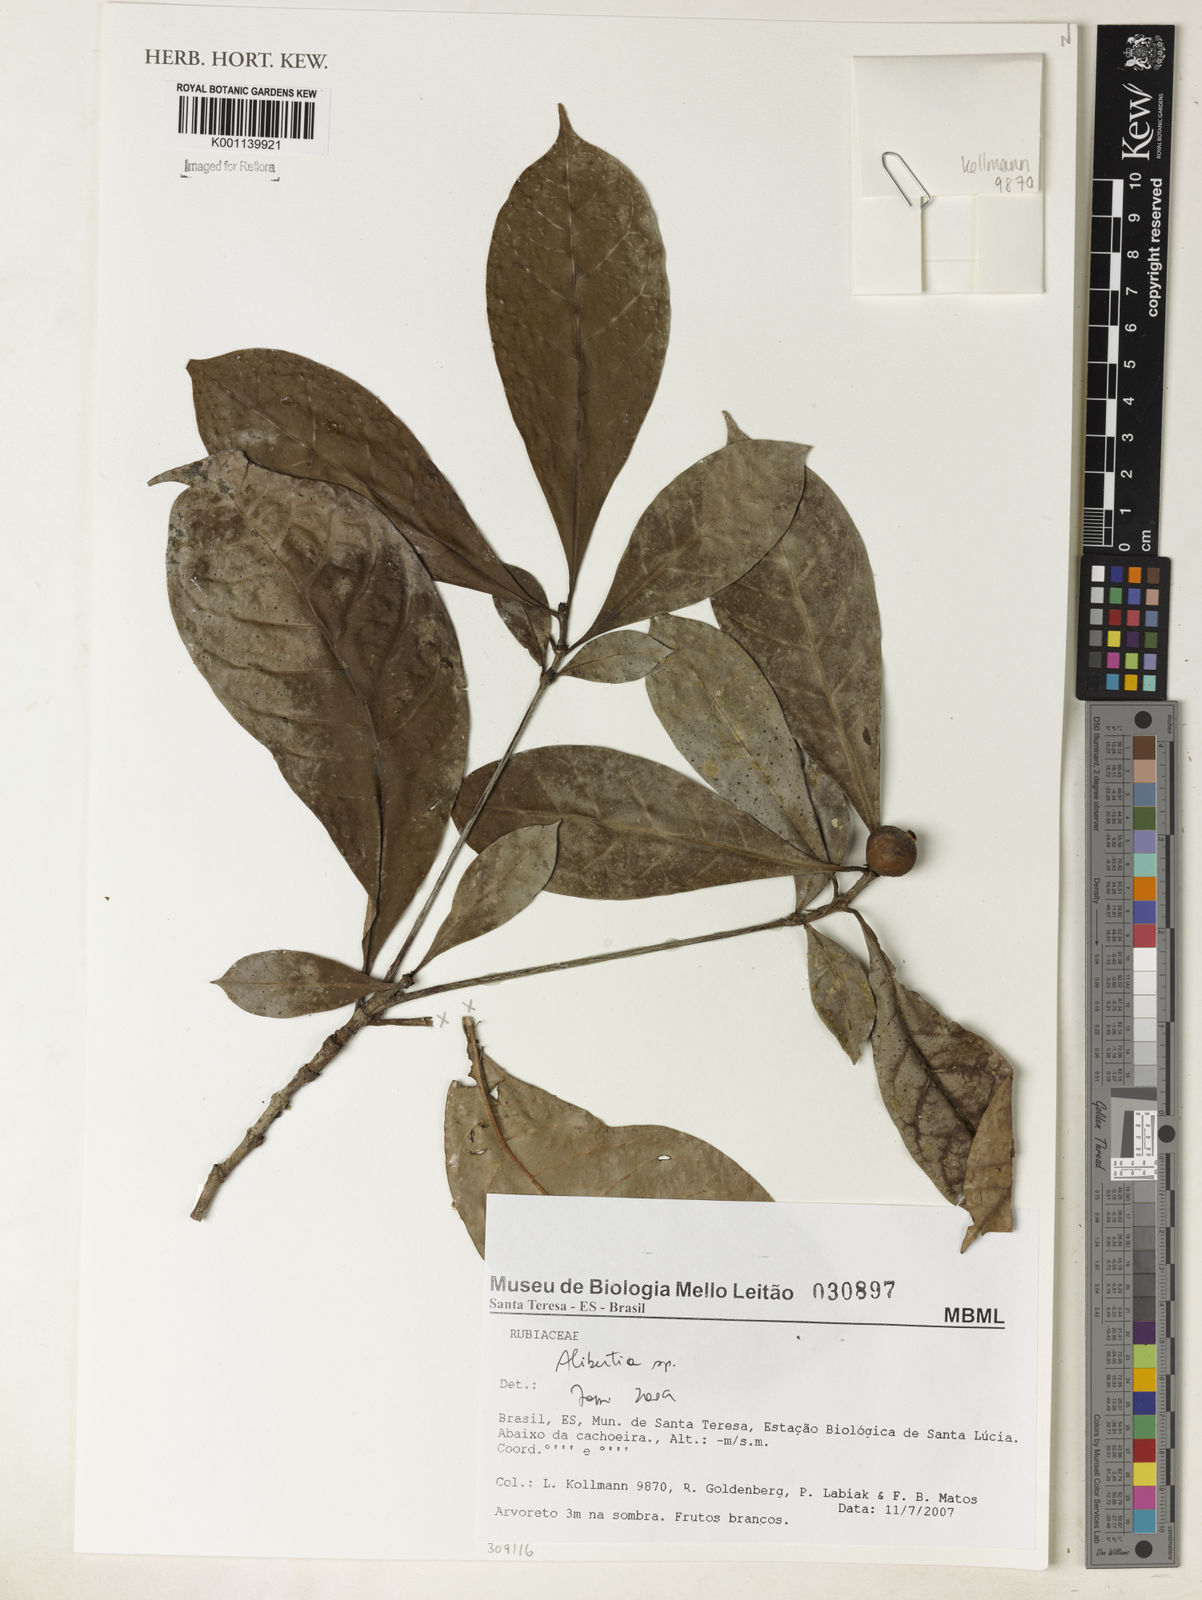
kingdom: Plantae
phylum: Tracheophyta
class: Magnoliopsida
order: Gentianales
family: Rubiaceae
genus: Alibertia
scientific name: Alibertia
